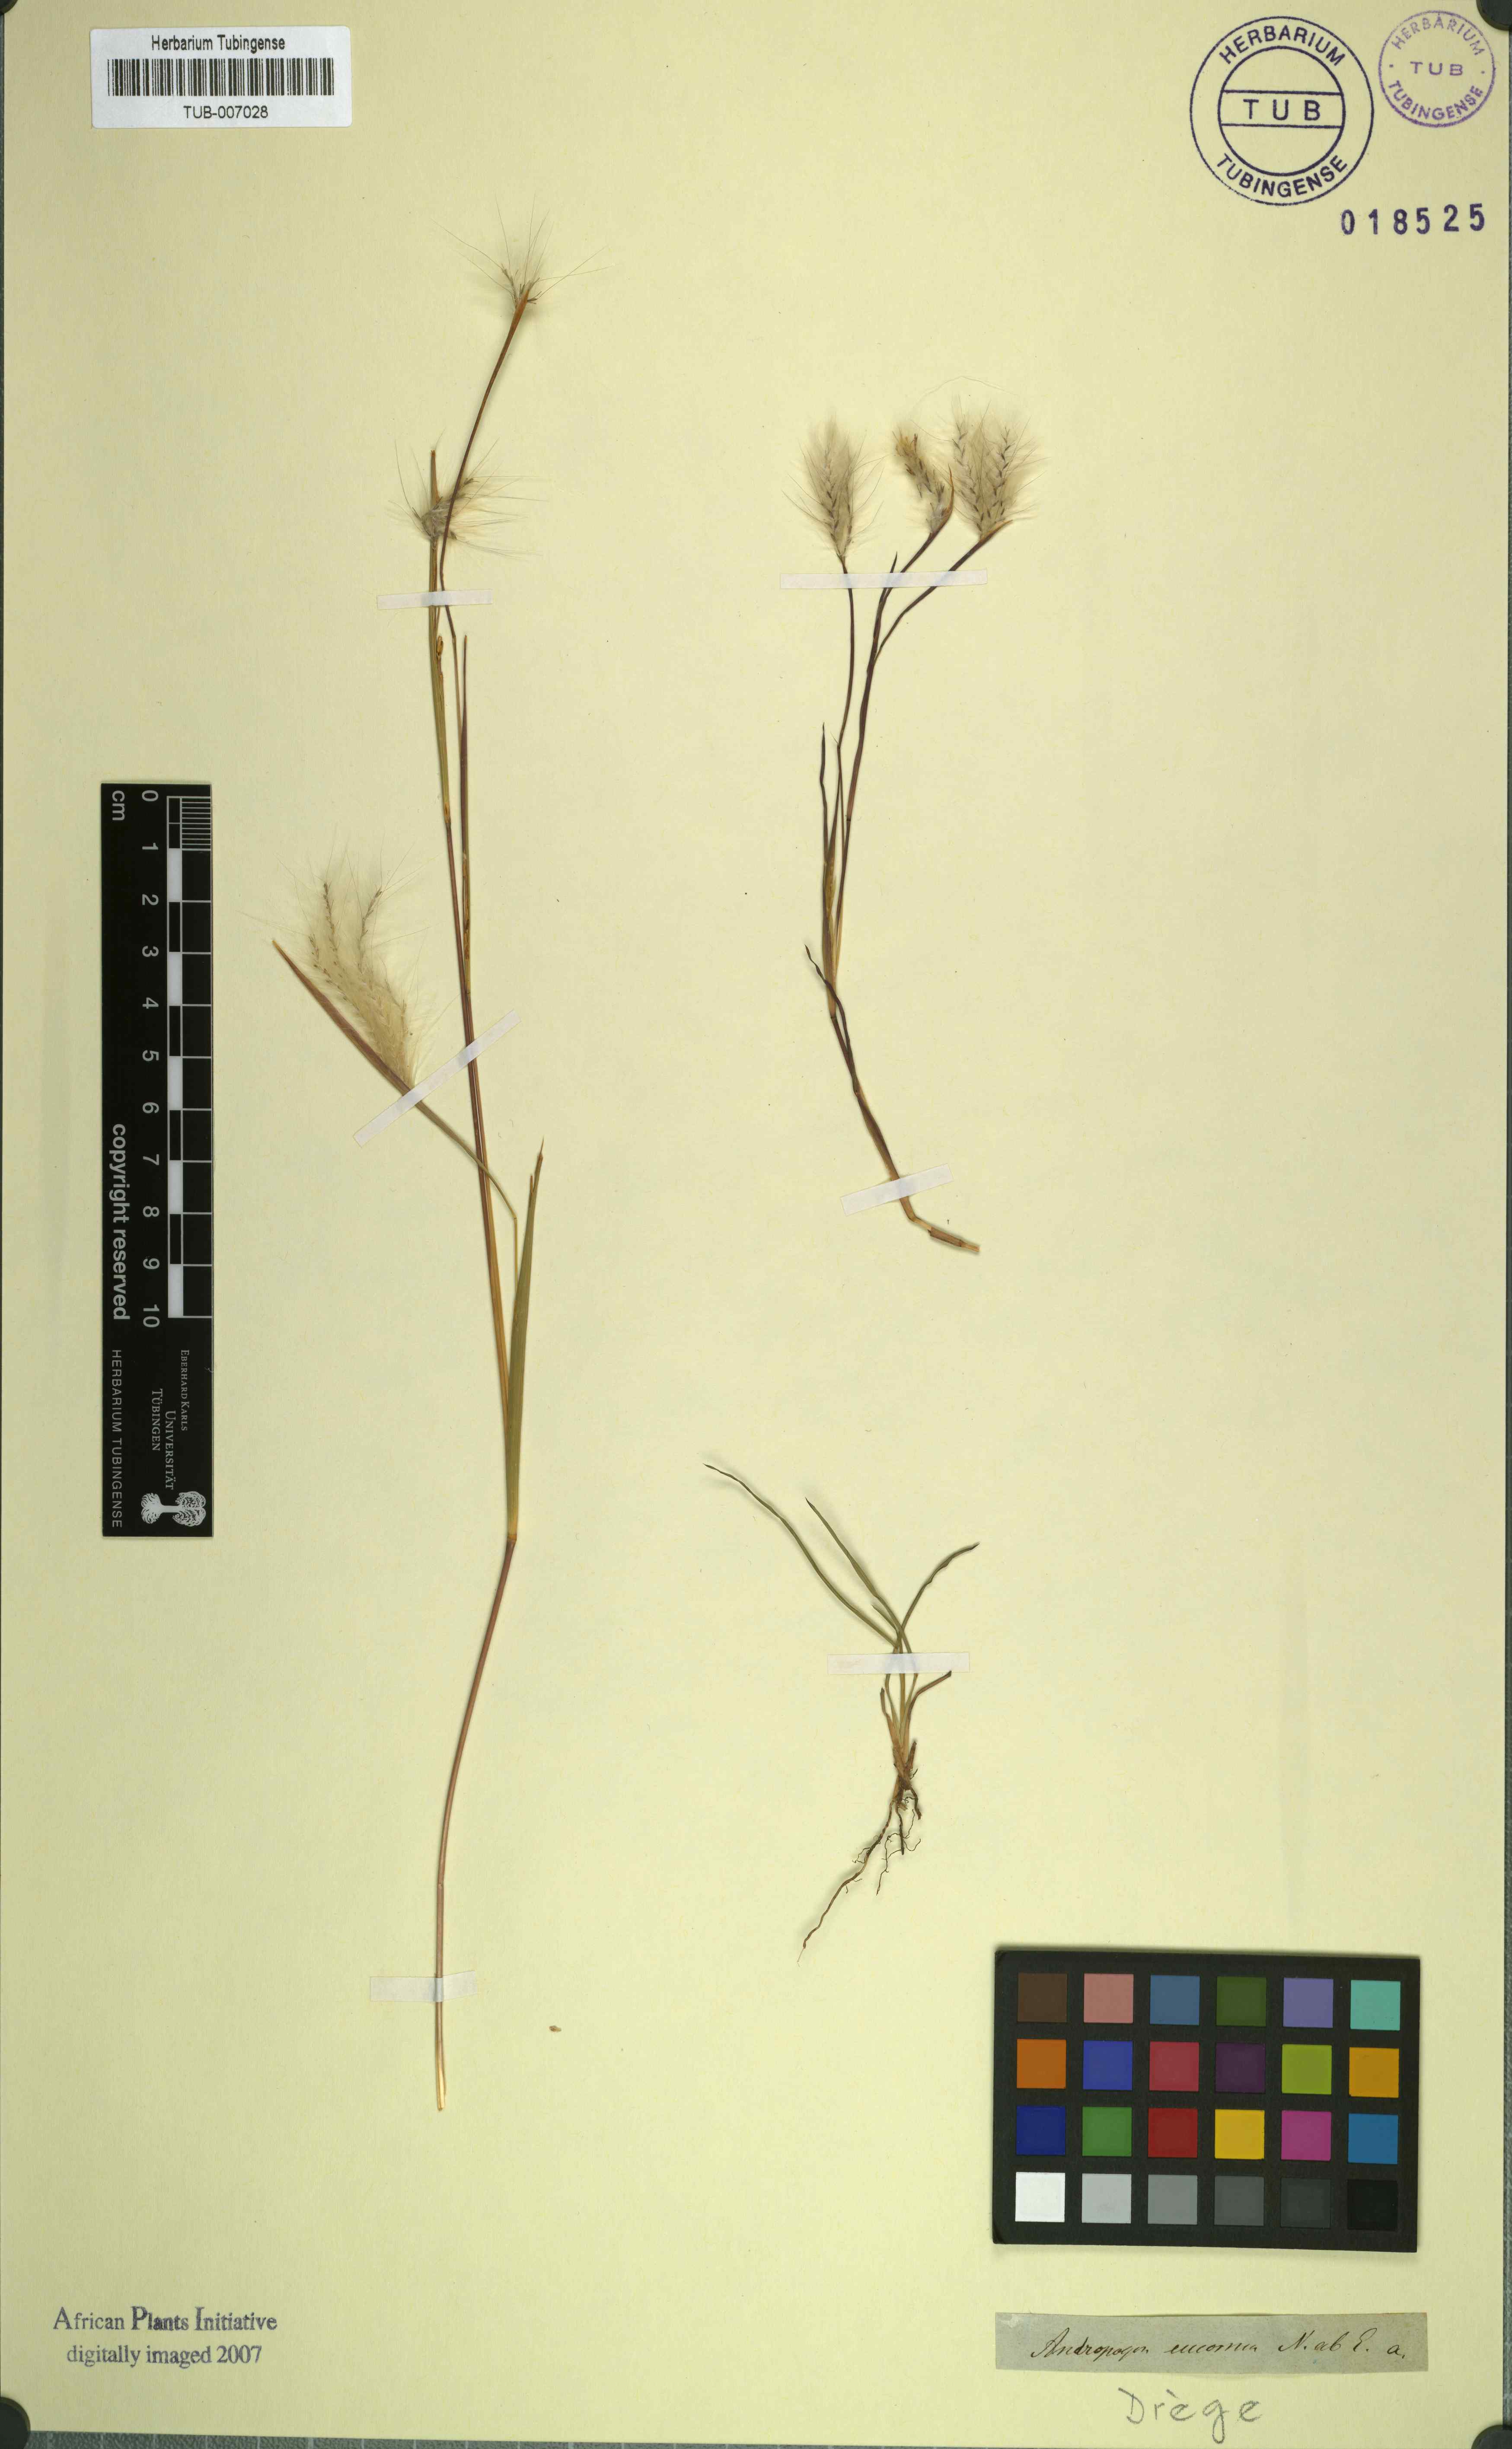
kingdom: Plantae
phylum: Tracheophyta
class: Liliopsida
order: Poales
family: Poaceae
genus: Andropogon
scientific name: Andropogon eucomus
